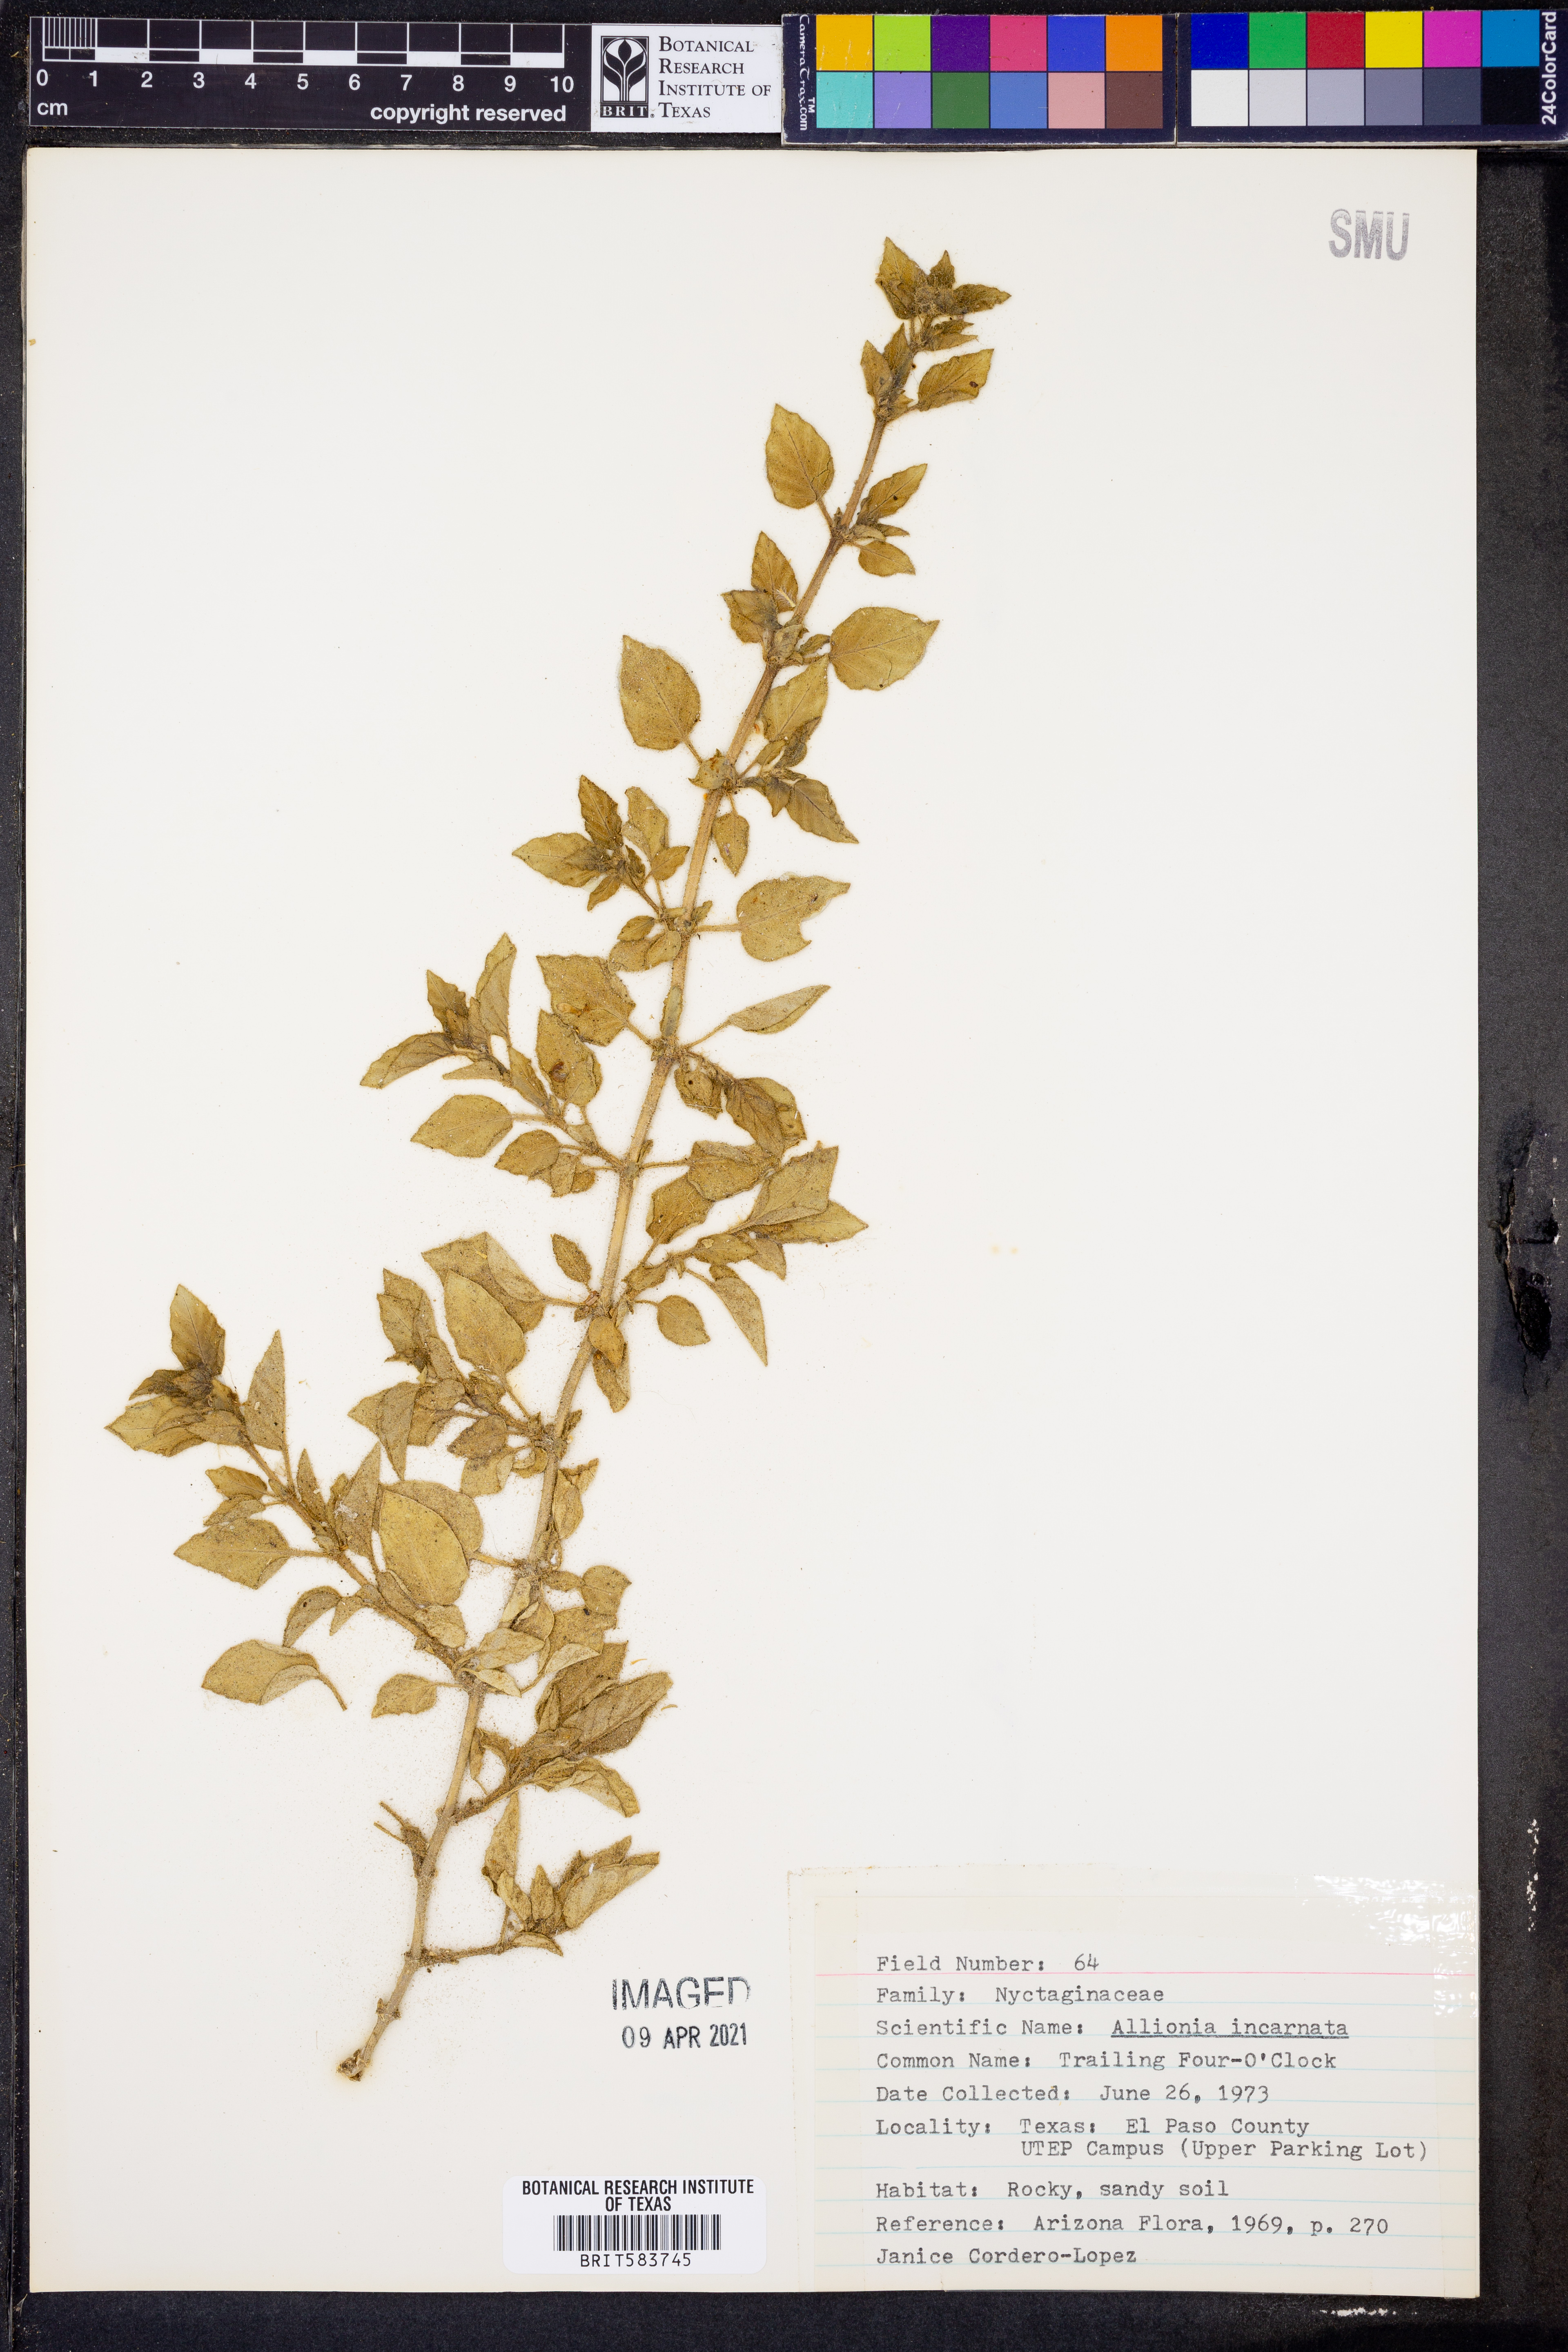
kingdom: Plantae
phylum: Tracheophyta
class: Magnoliopsida
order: Caryophyllales
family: Nyctaginaceae
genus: Allionia
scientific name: Allionia incarnata
